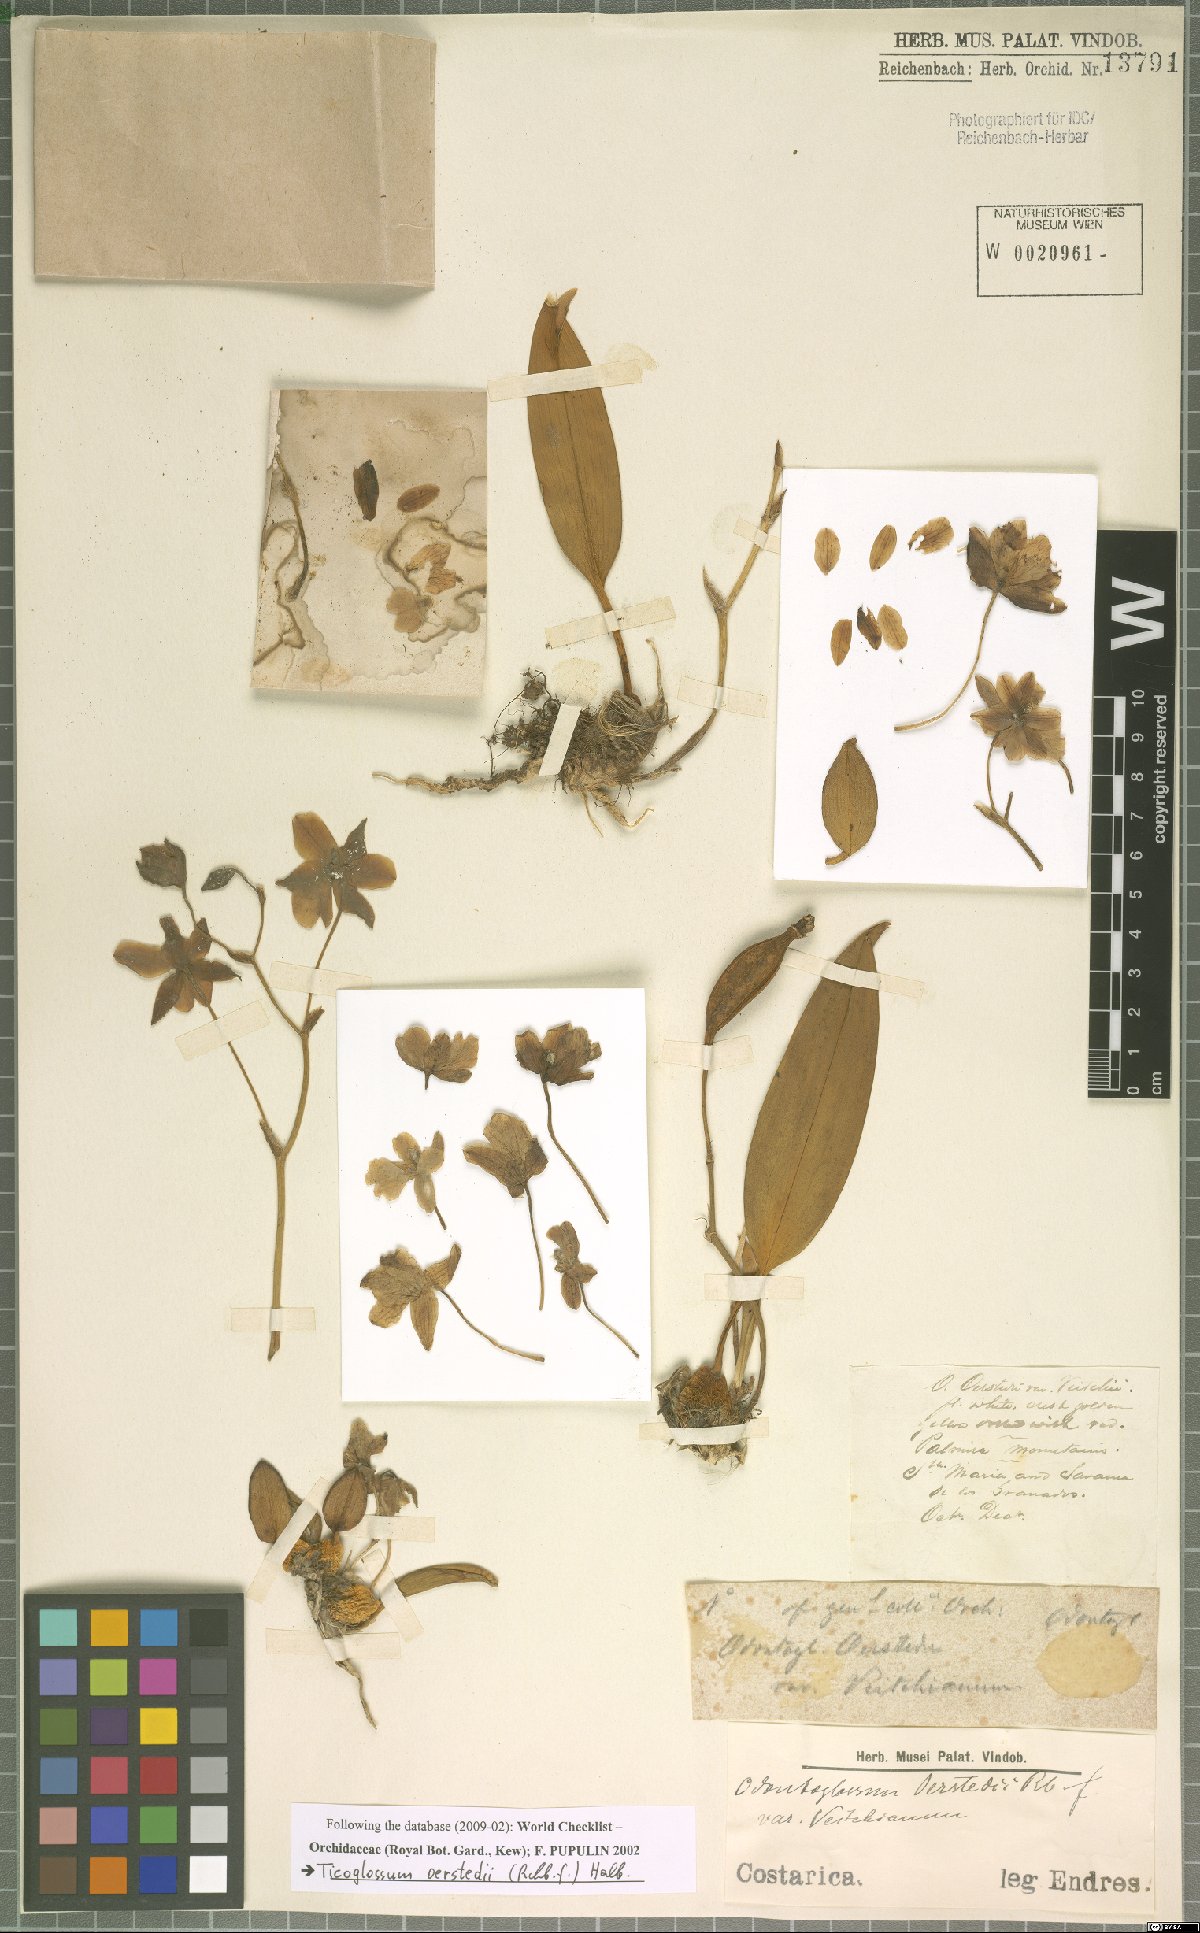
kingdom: Plantae
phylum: Tracheophyta
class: Liliopsida
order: Asparagales
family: Orchidaceae
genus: Rossioglossum
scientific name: Rossioglossum oerstedii
